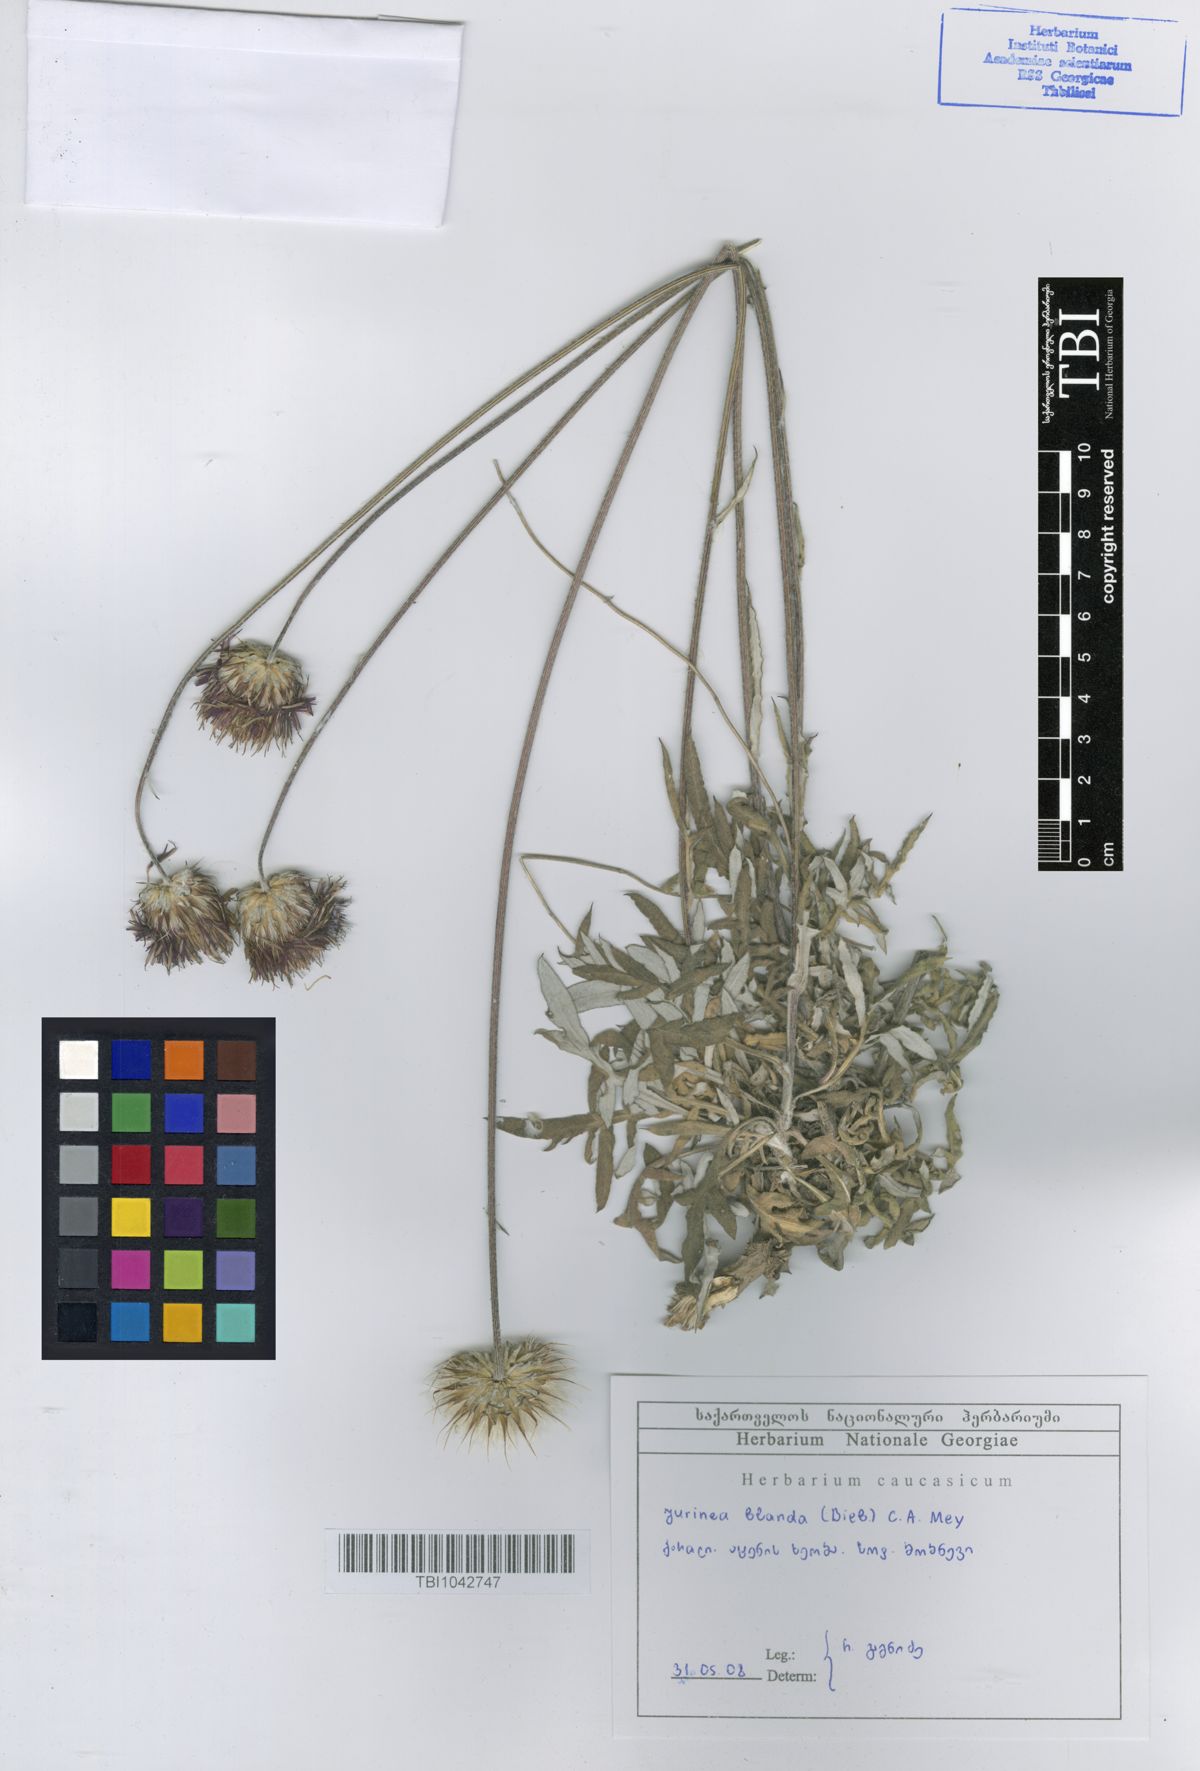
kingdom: Plantae
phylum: Tracheophyta
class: Magnoliopsida
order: Asterales
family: Asteraceae
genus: Jurinea
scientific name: Jurinea blanda
